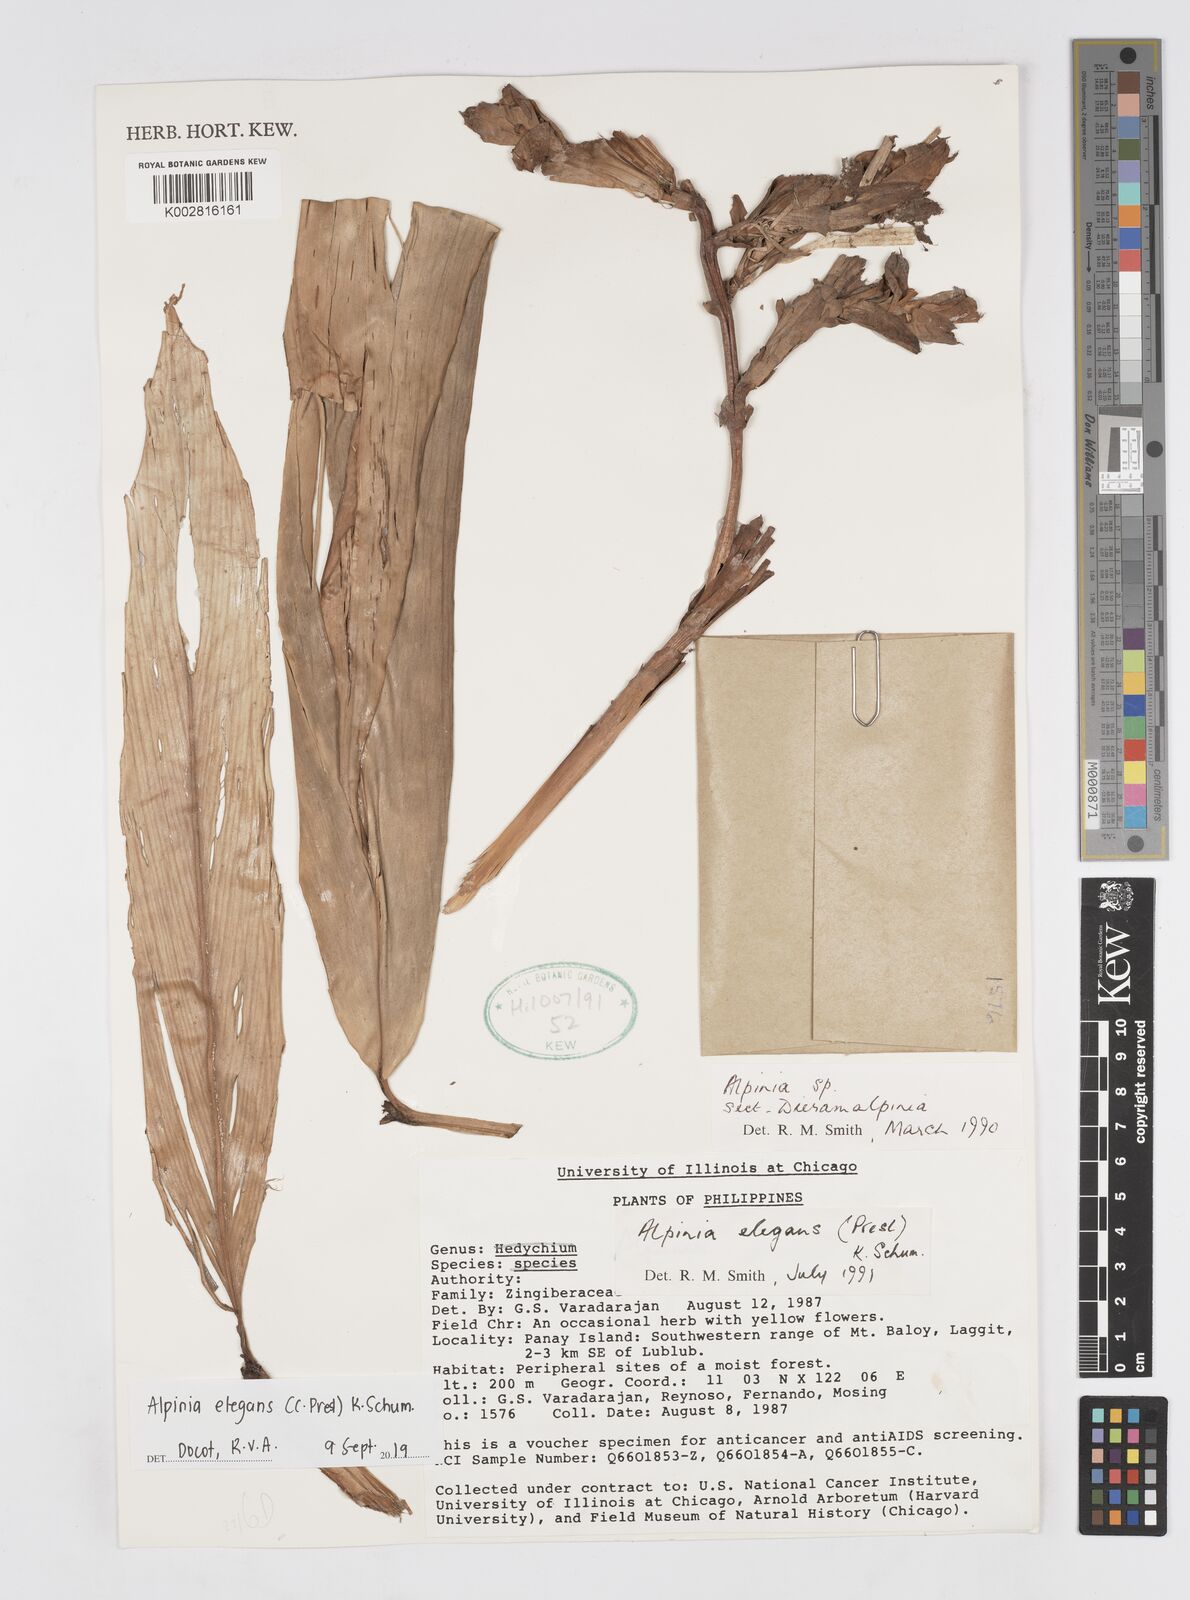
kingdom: Plantae
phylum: Tracheophyta
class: Liliopsida
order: Zingiberales
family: Zingiberaceae
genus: Alpinia
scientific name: Alpinia elegans
